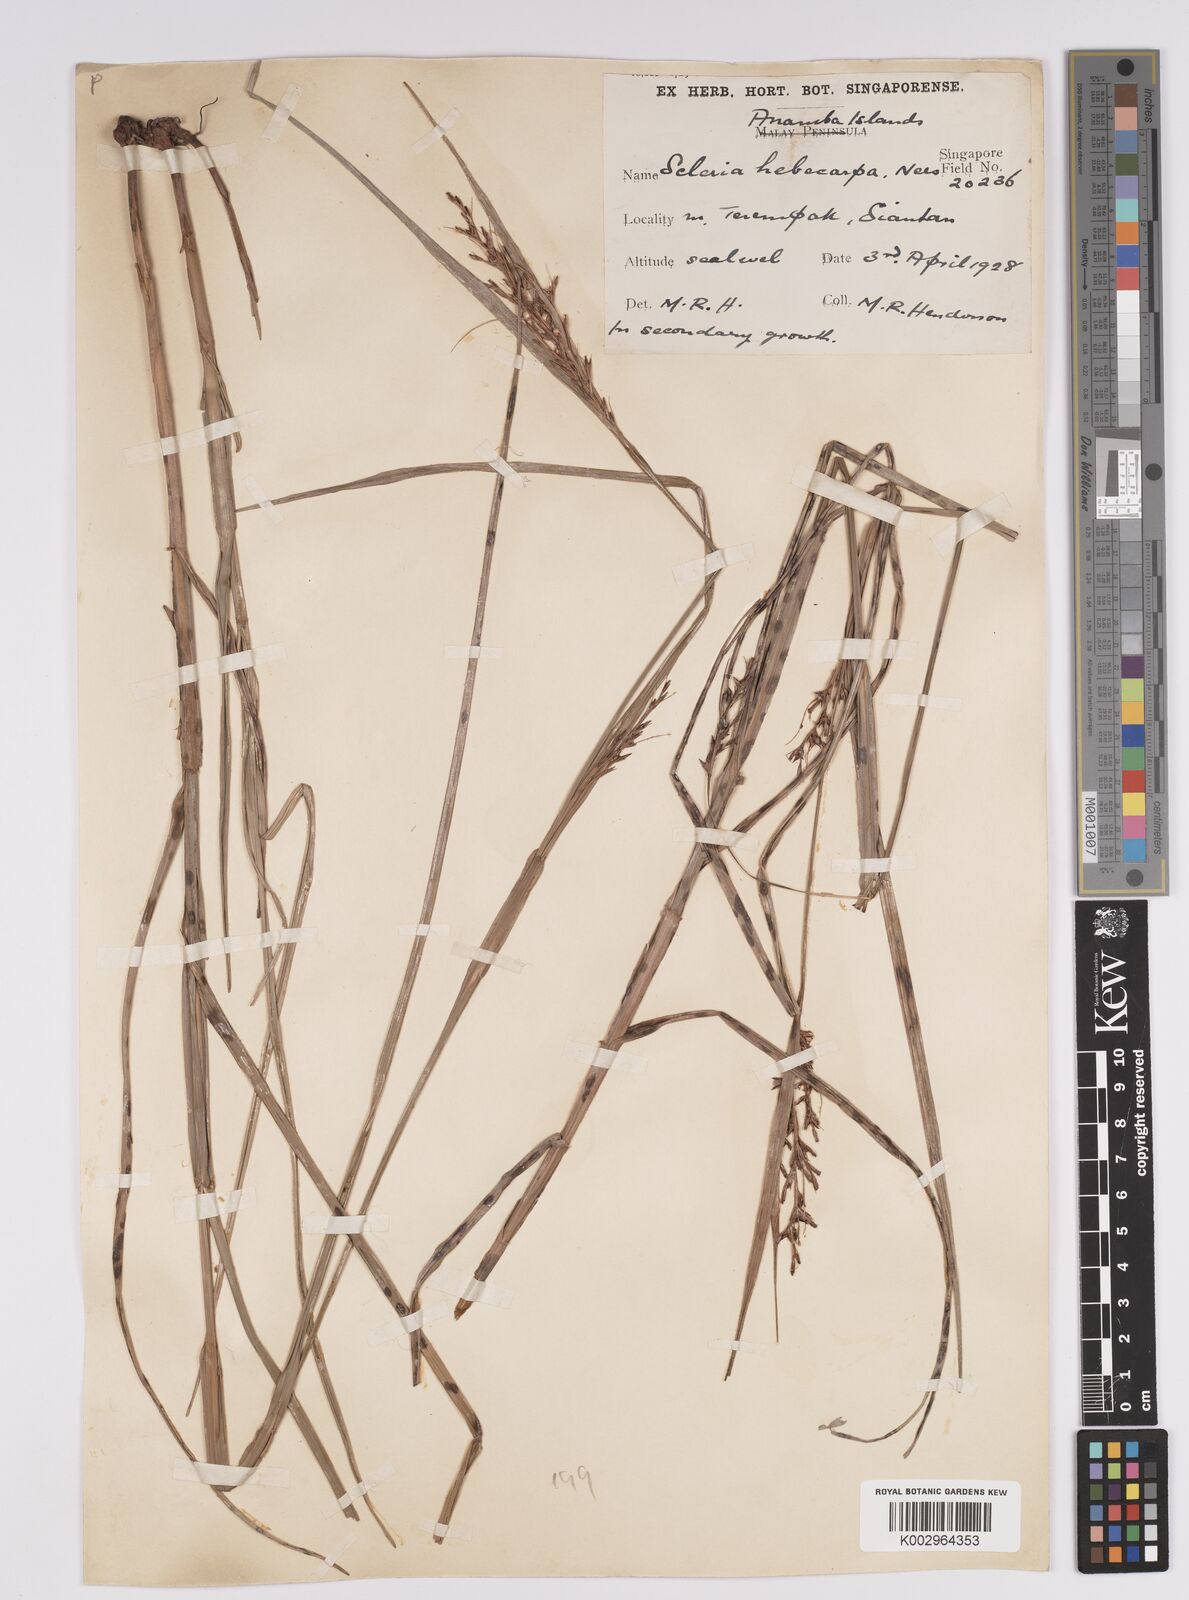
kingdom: Plantae
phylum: Tracheophyta
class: Liliopsida
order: Poales
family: Cyperaceae
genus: Scleria
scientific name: Scleria levis
